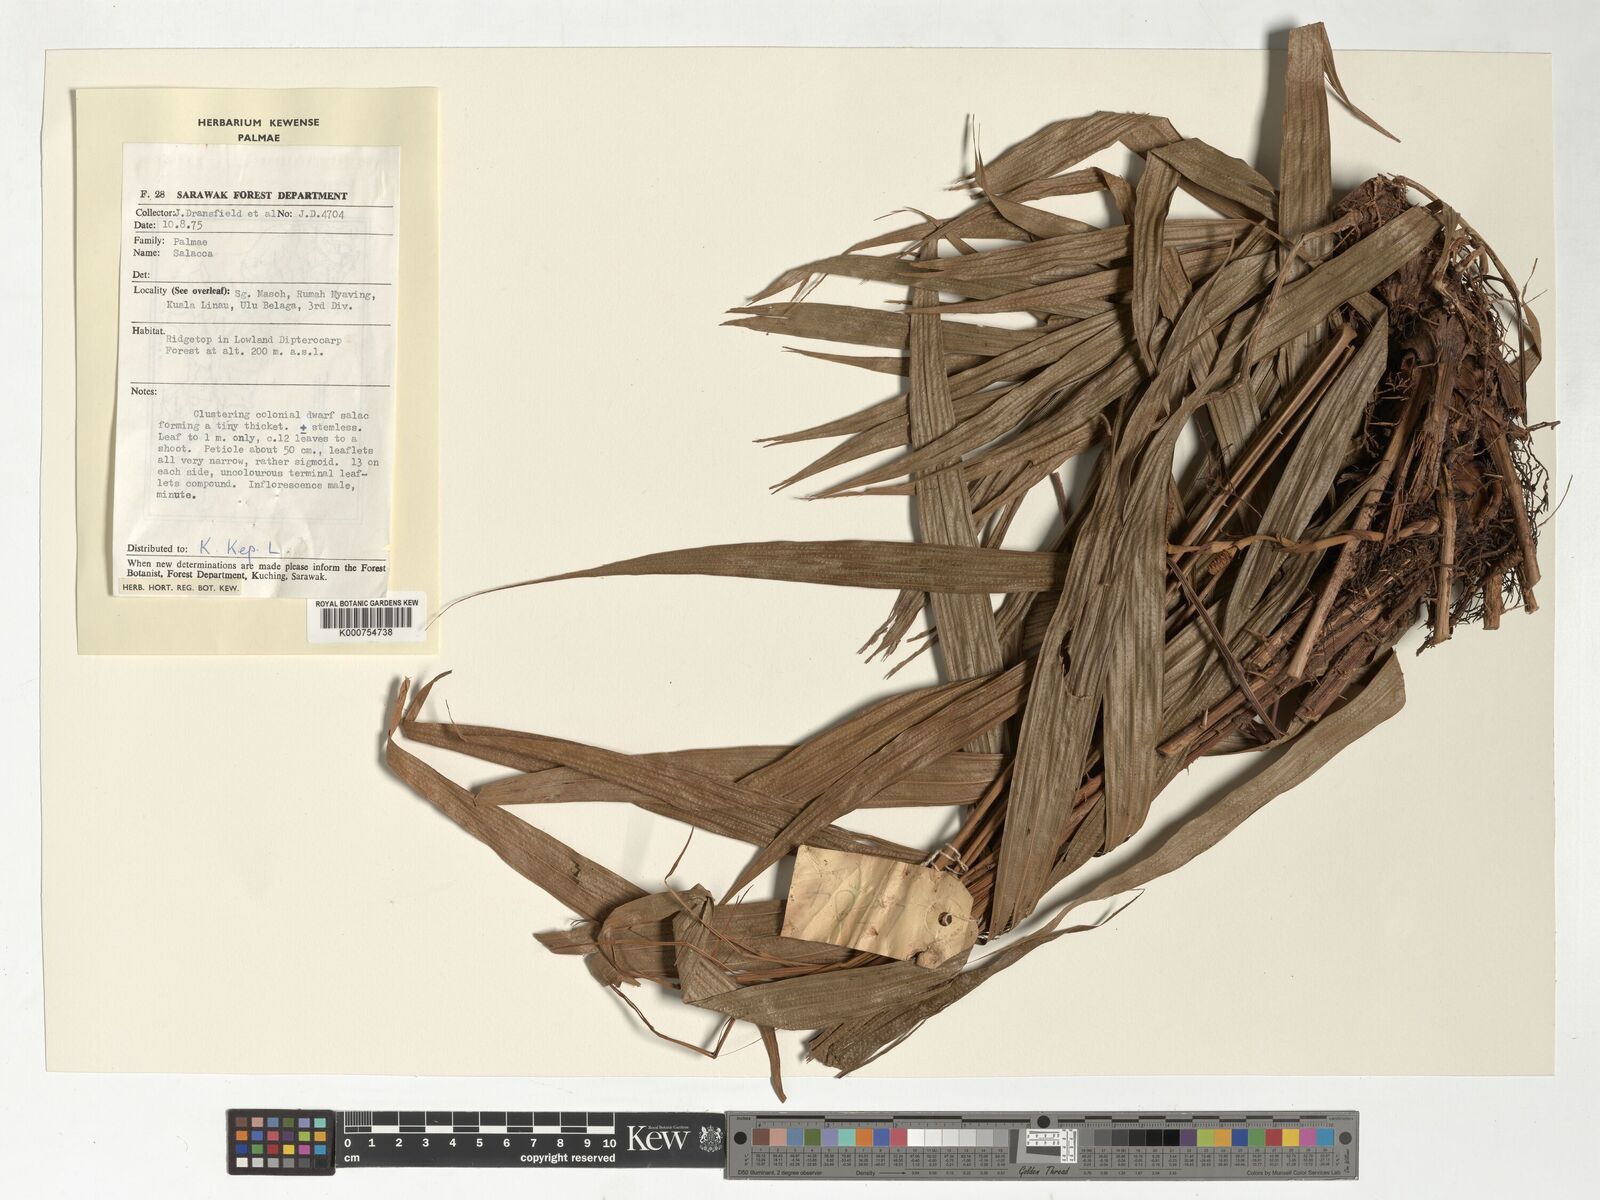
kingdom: Plantae
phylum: Tracheophyta
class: Liliopsida
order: Arecales
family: Arecaceae
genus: Salacca
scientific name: Salacca
